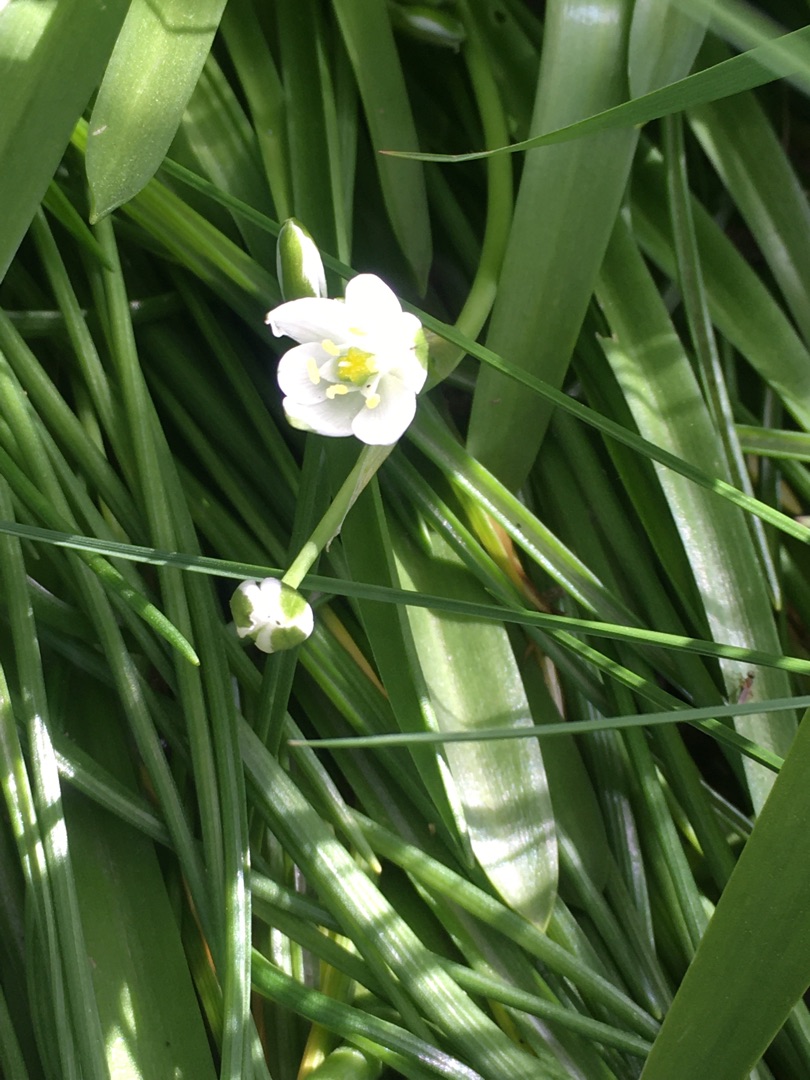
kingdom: Plantae
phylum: Tracheophyta
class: Liliopsida
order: Asparagales
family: Asparagaceae
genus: Ornithogalum
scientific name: Ornithogalum umbellatum
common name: Kost-fuglemælk
